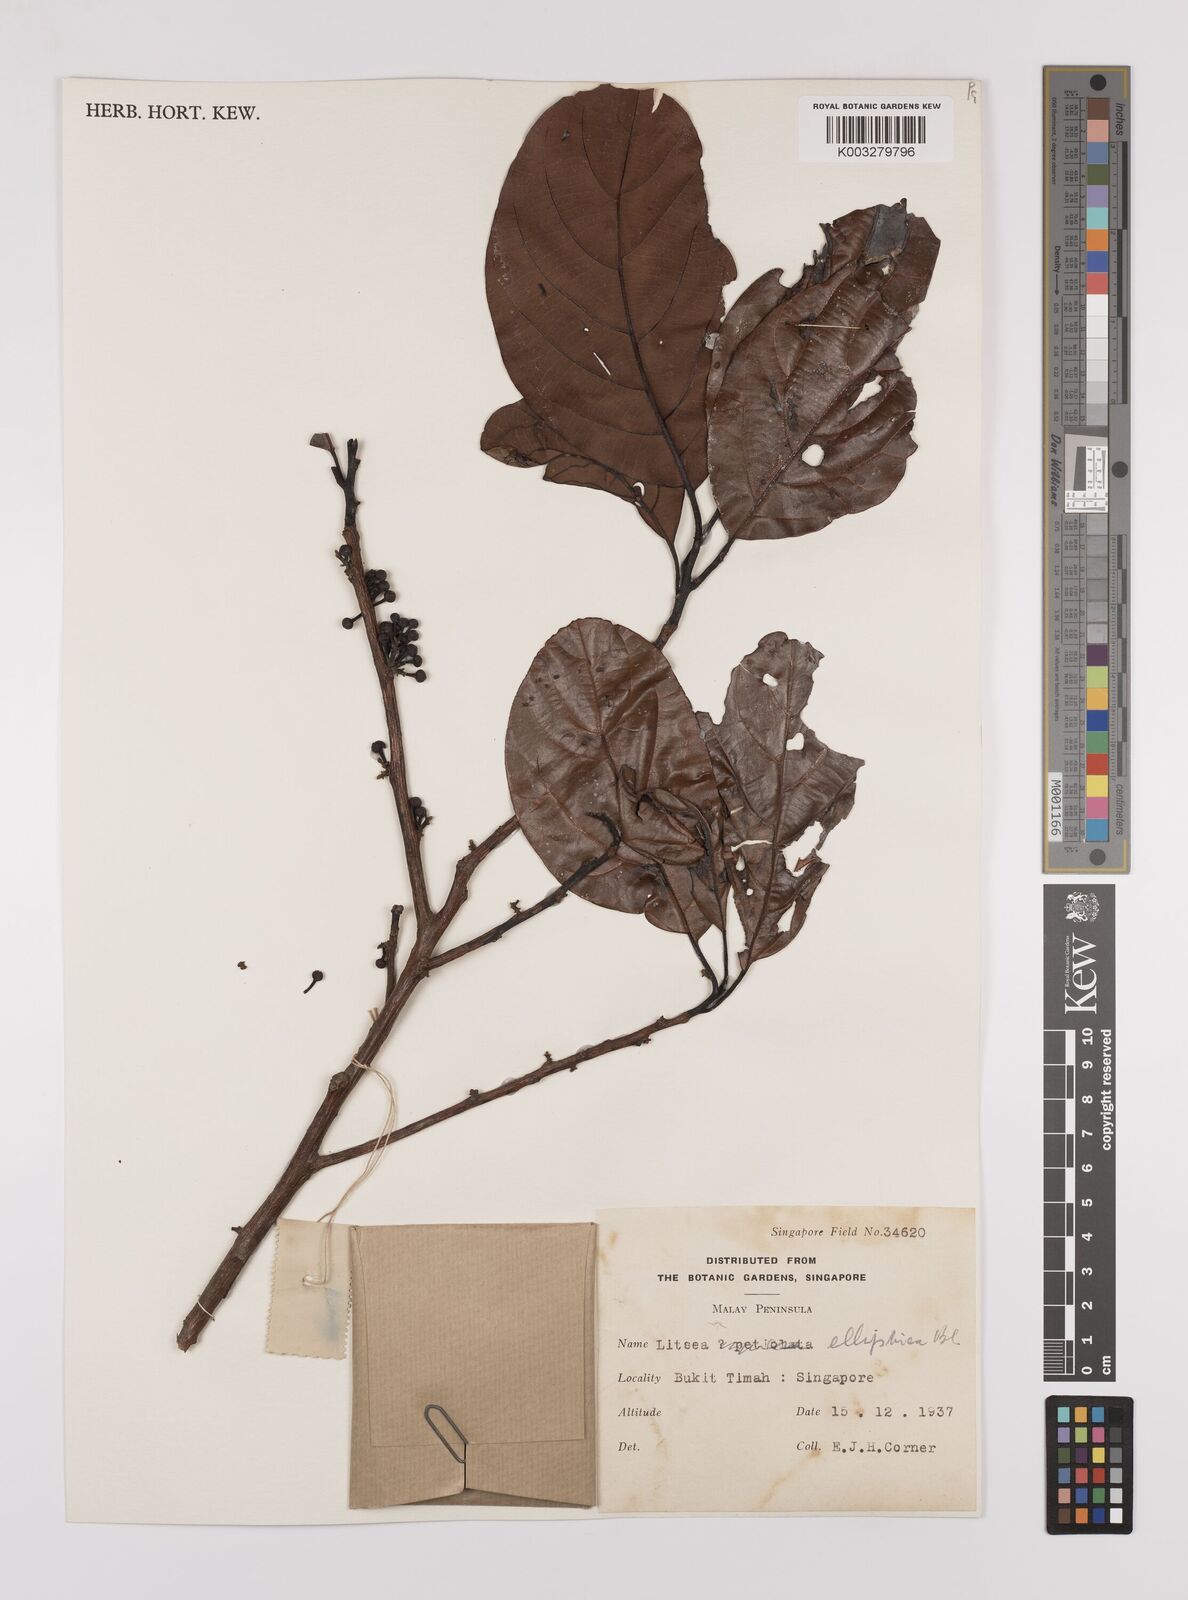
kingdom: Plantae
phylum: Tracheophyta
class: Magnoliopsida
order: Laurales
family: Lauraceae
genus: Litsea
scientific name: Litsea elliptica
